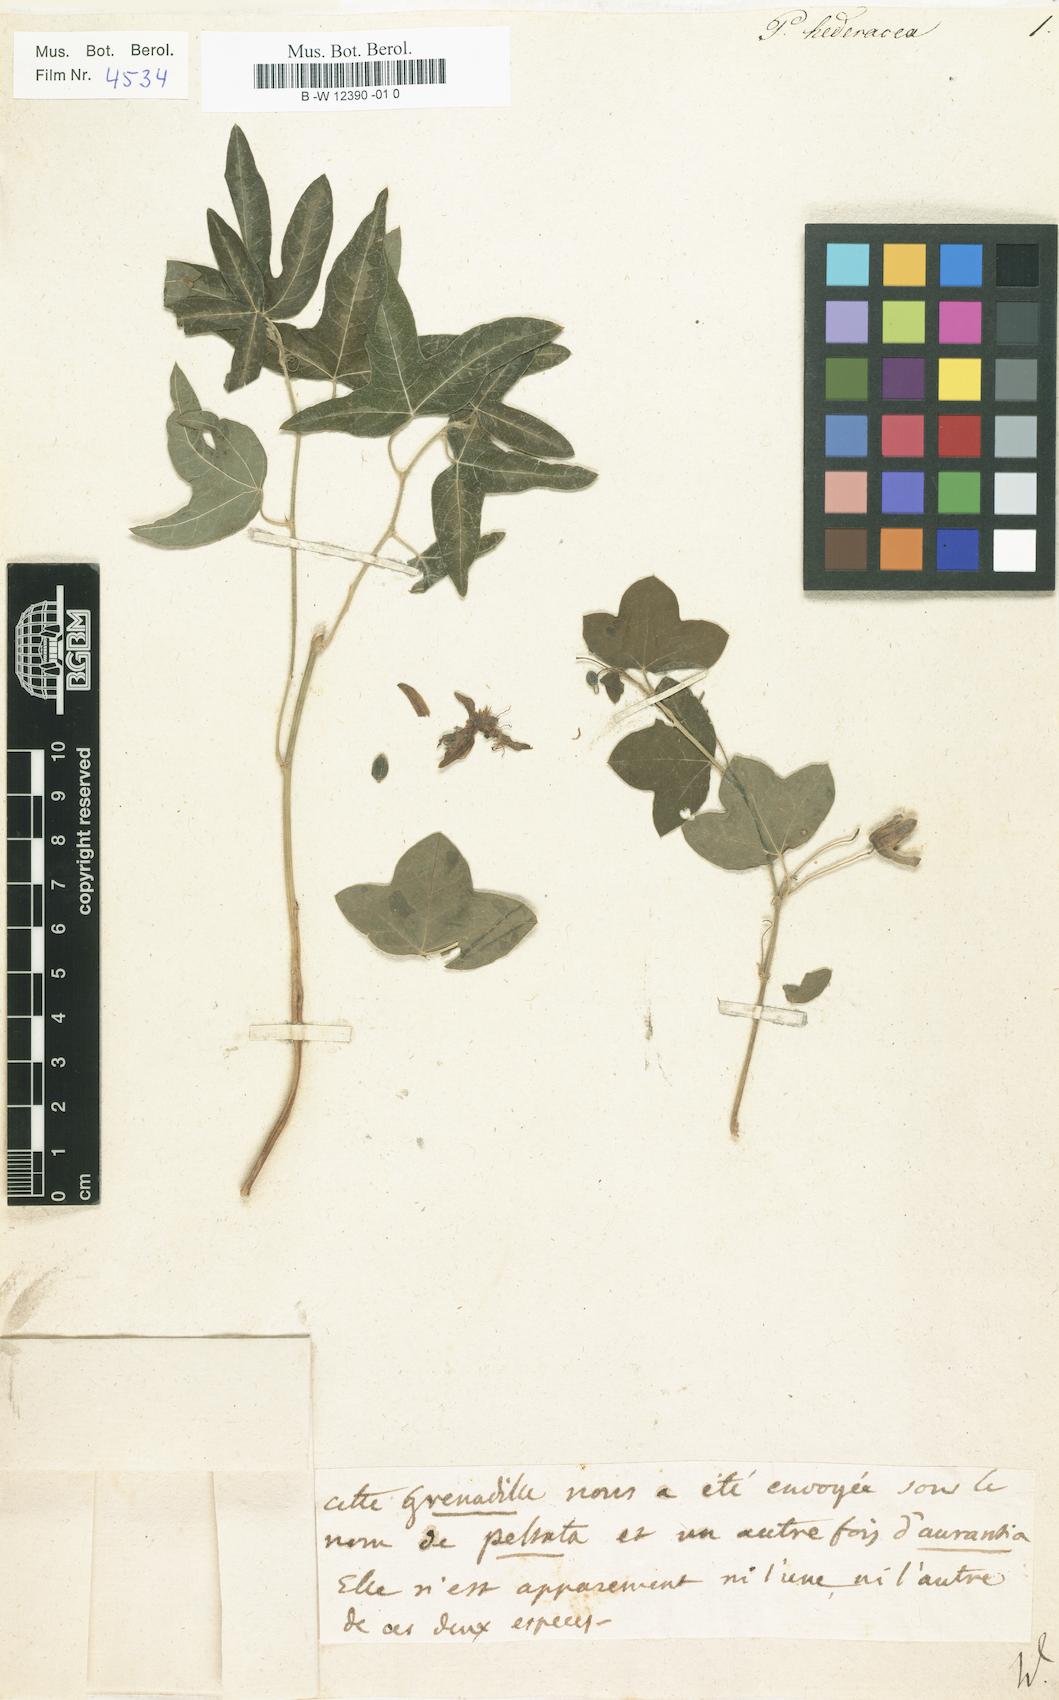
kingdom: Plantae
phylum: Tracheophyta
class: Magnoliopsida
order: Malpighiales
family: Passifloraceae
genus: Passiflora
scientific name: Passiflora suberosa
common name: Wild passionfruit
